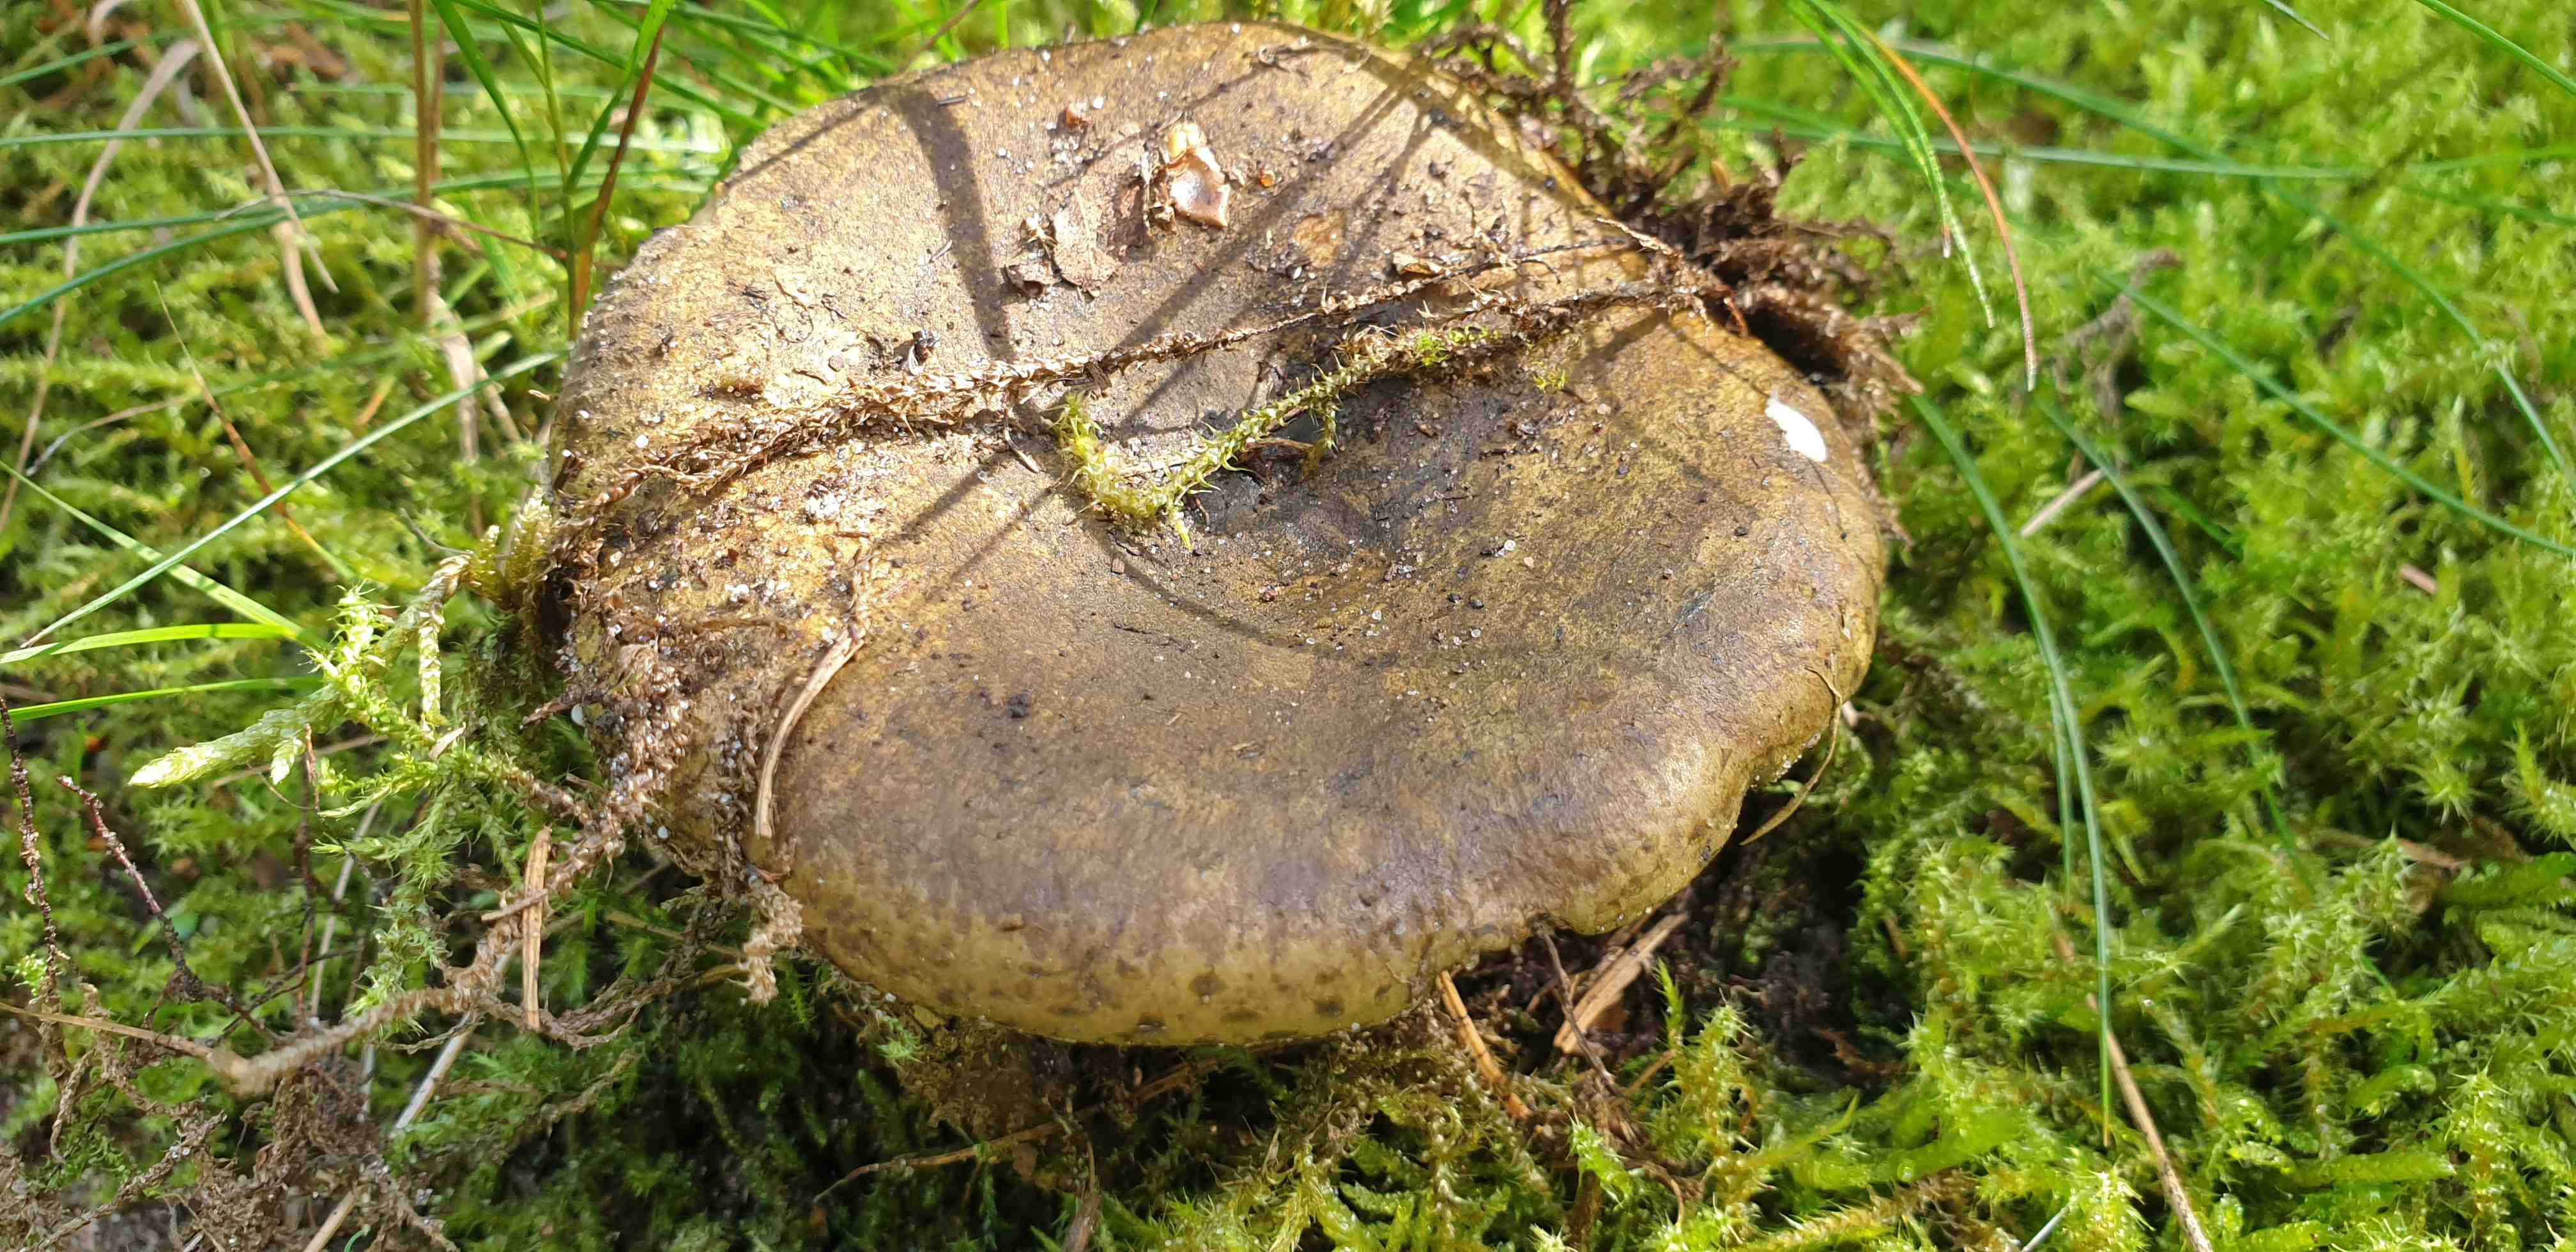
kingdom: Fungi
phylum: Basidiomycota
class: Agaricomycetes
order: Russulales
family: Russulaceae
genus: Lactarius
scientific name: Lactarius necator
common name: manddraber-mælkehat
